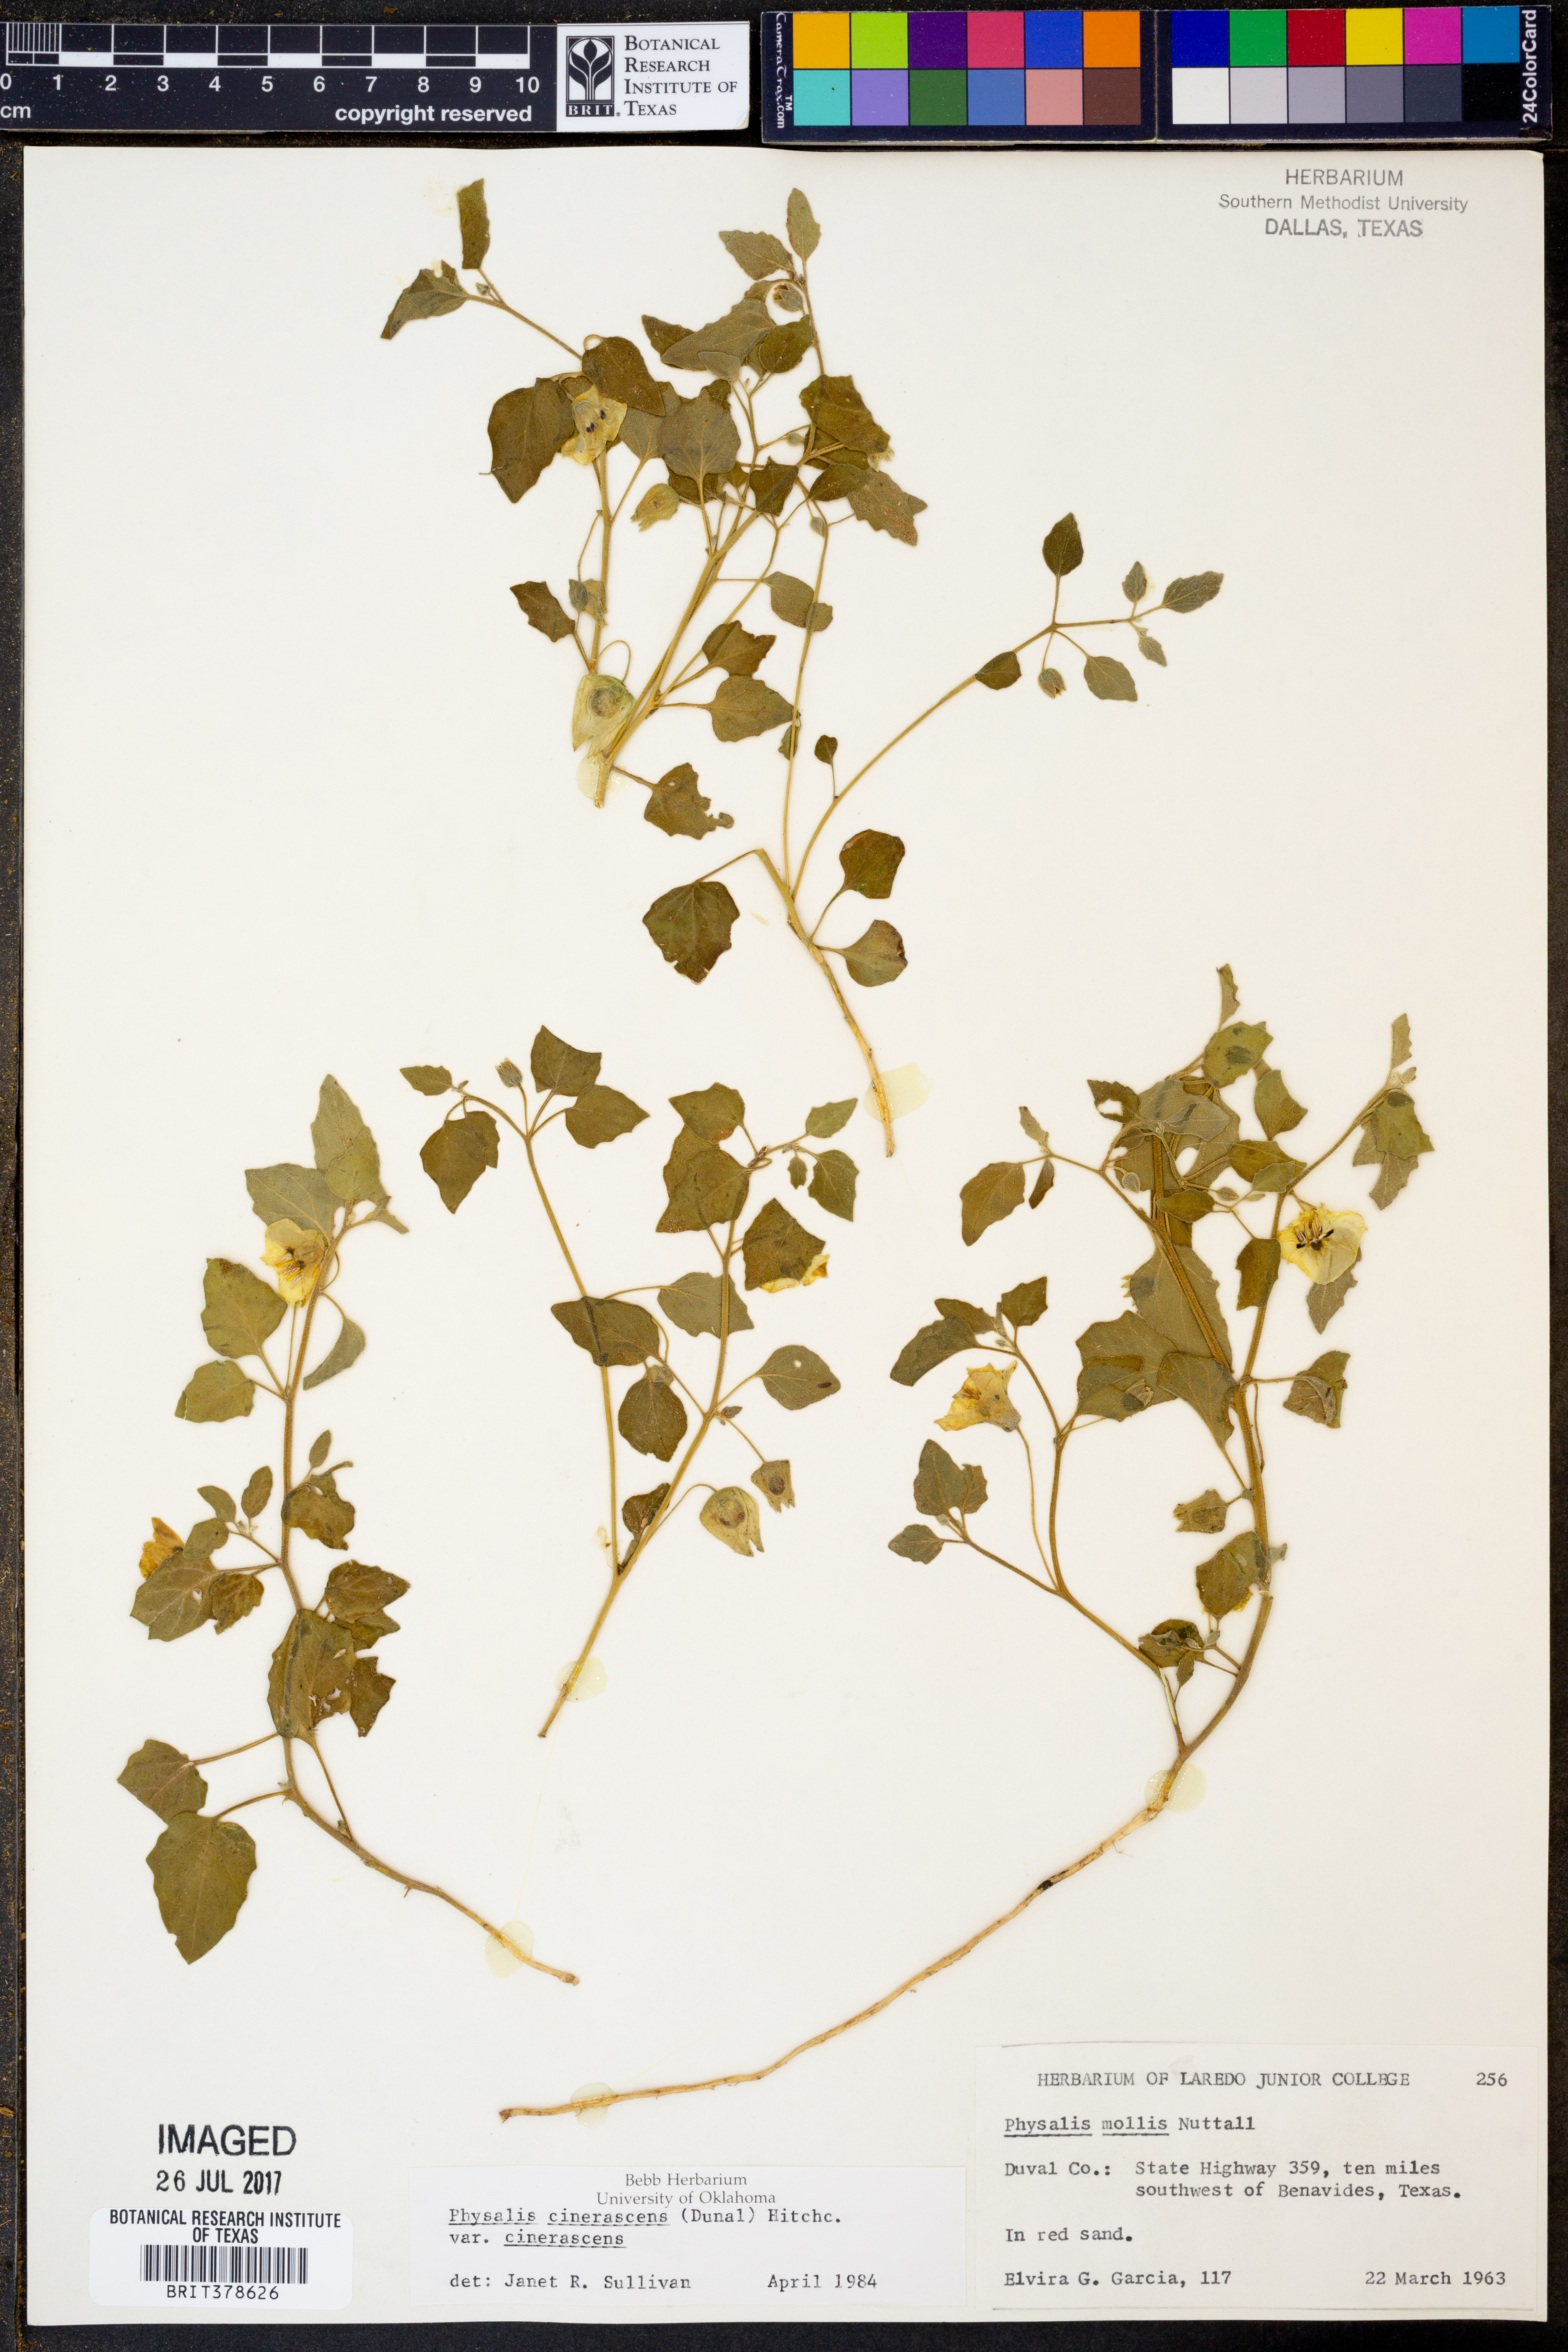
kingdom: Plantae
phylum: Tracheophyta
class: Magnoliopsida
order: Solanales
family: Solanaceae
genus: Physalis
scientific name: Physalis cinerascens
